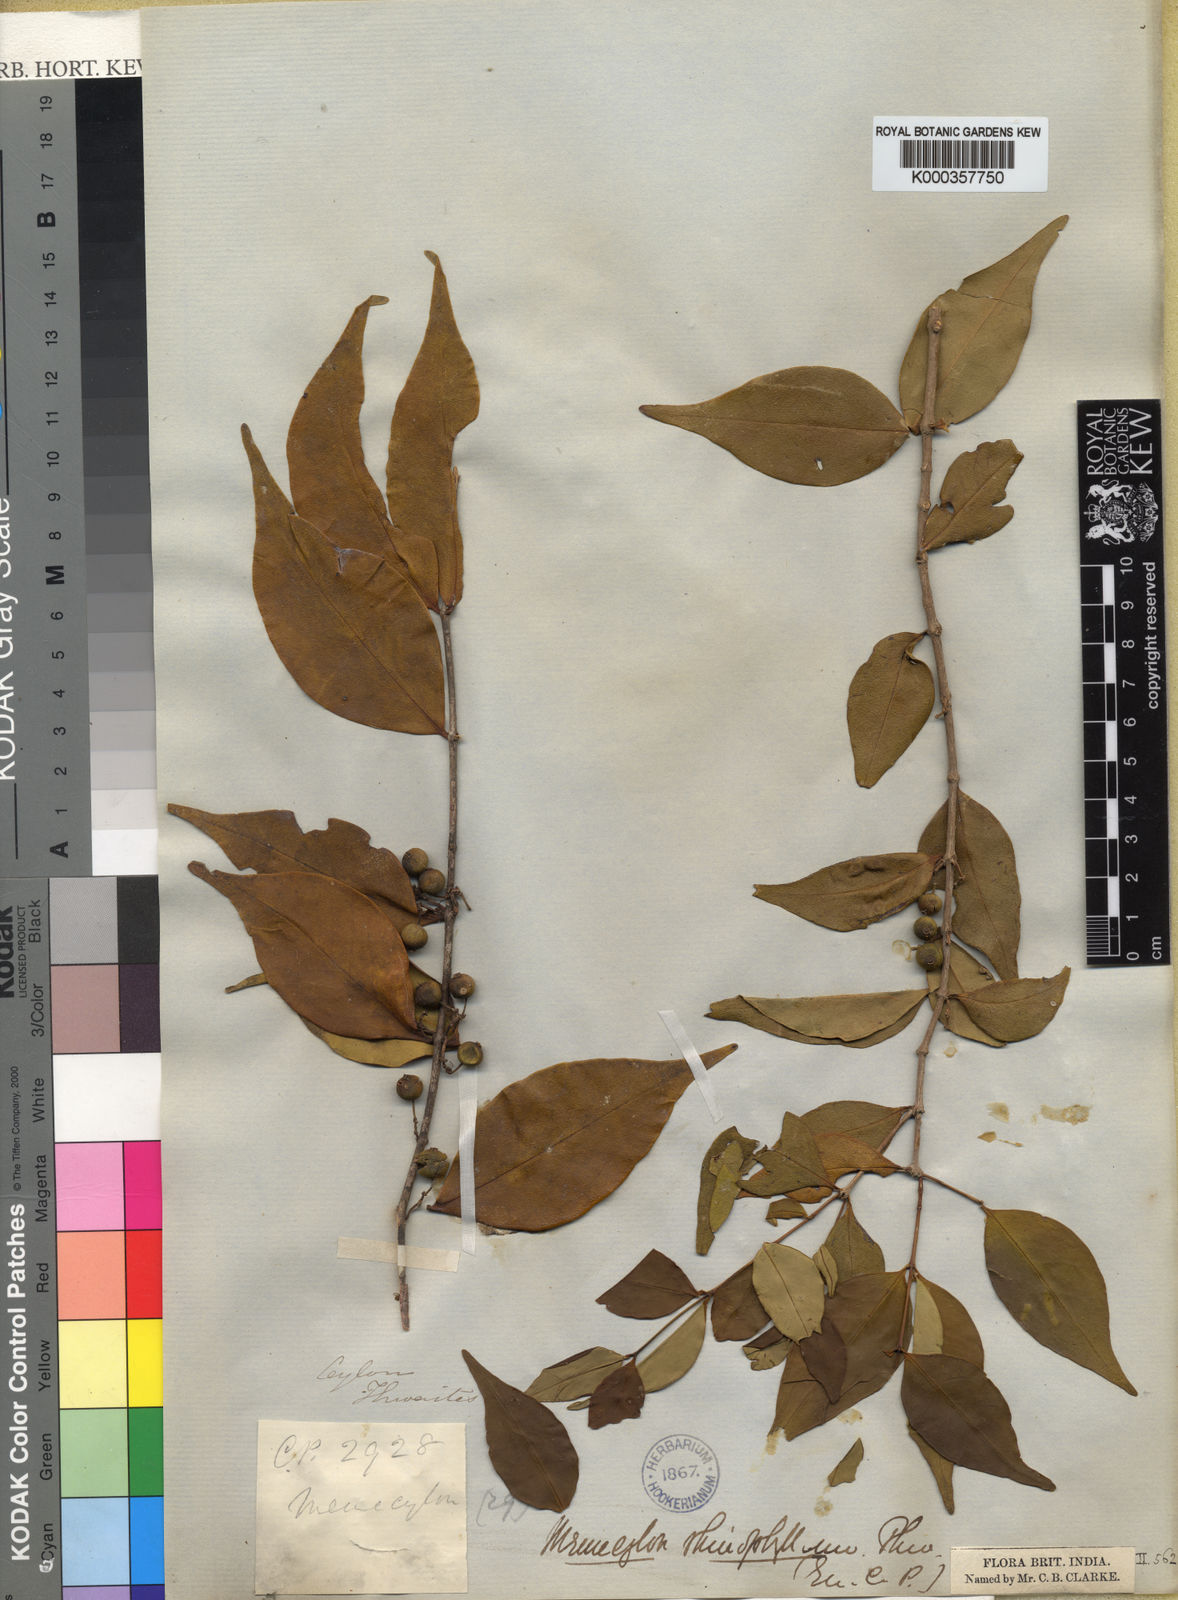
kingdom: Plantae
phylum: Tracheophyta
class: Magnoliopsida
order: Myrtales
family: Melastomataceae
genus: Memecylon
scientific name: Memecylon rhinophyllum
